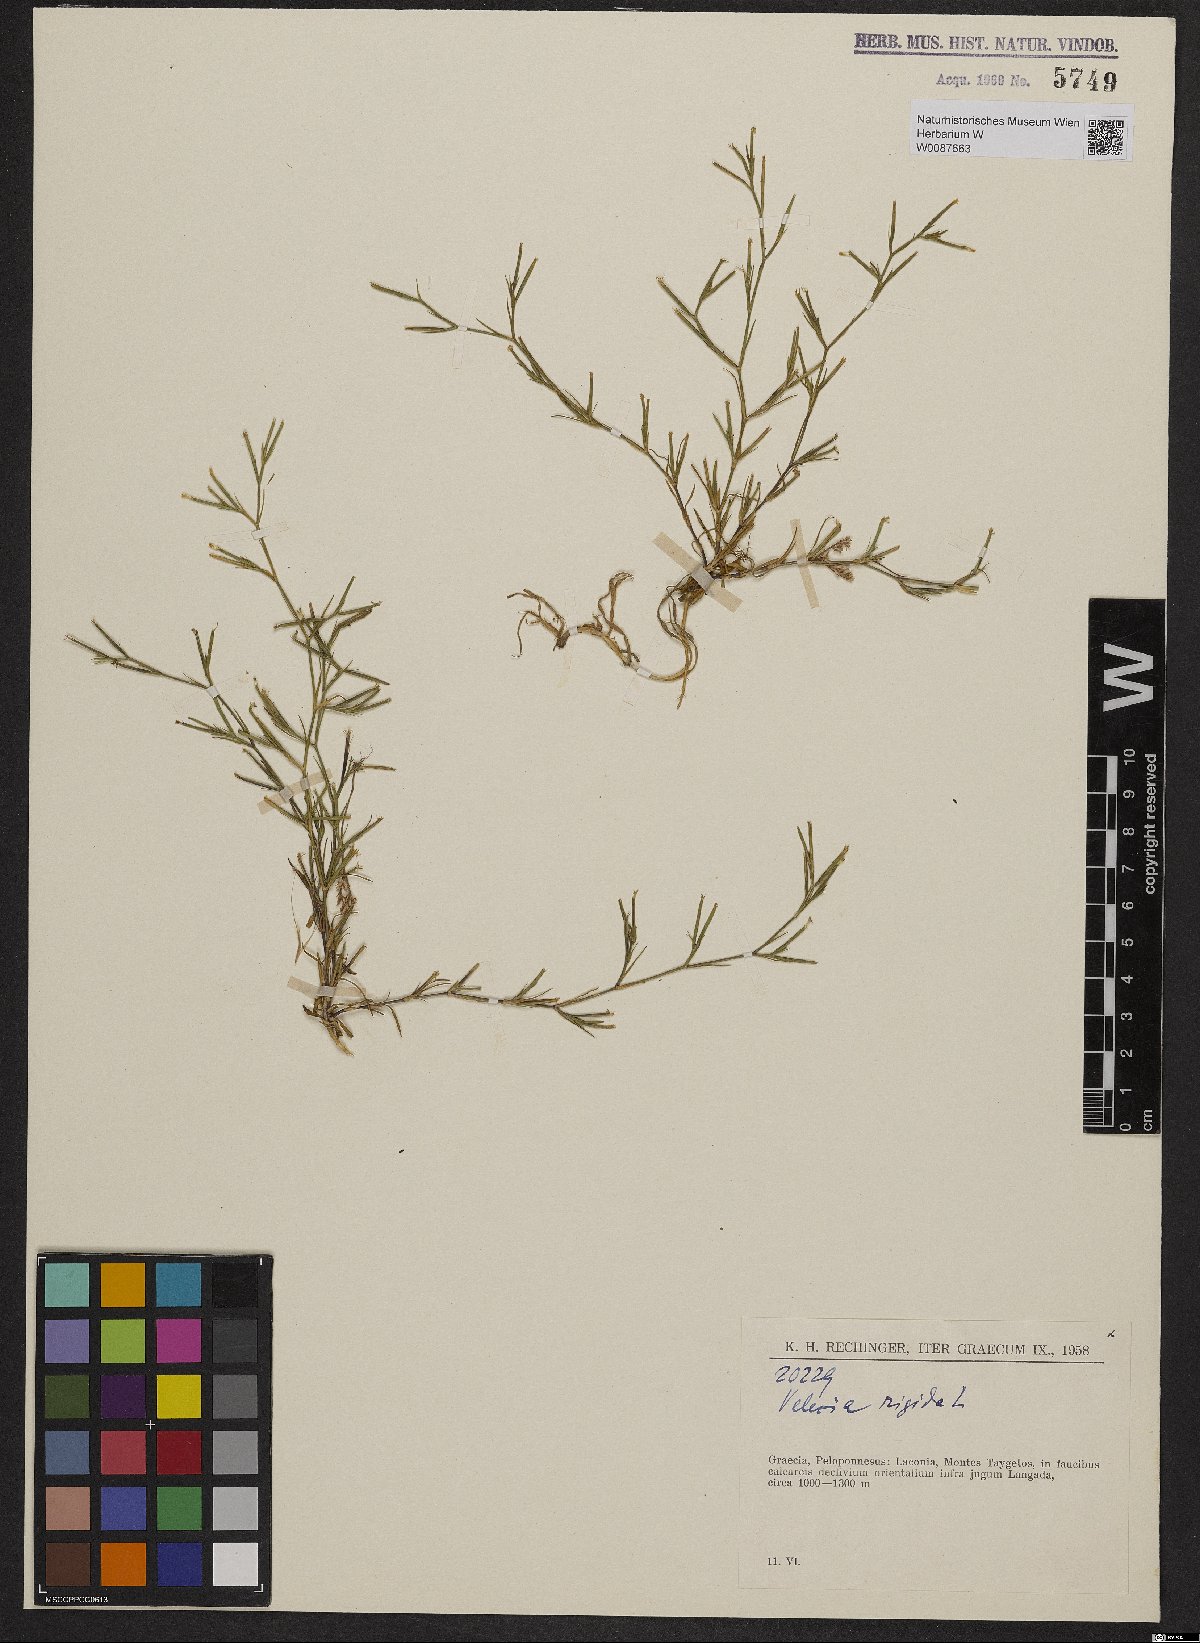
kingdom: Plantae
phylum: Tracheophyta
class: Magnoliopsida
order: Caryophyllales
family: Caryophyllaceae
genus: Dianthus
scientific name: Dianthus nudiflorus
